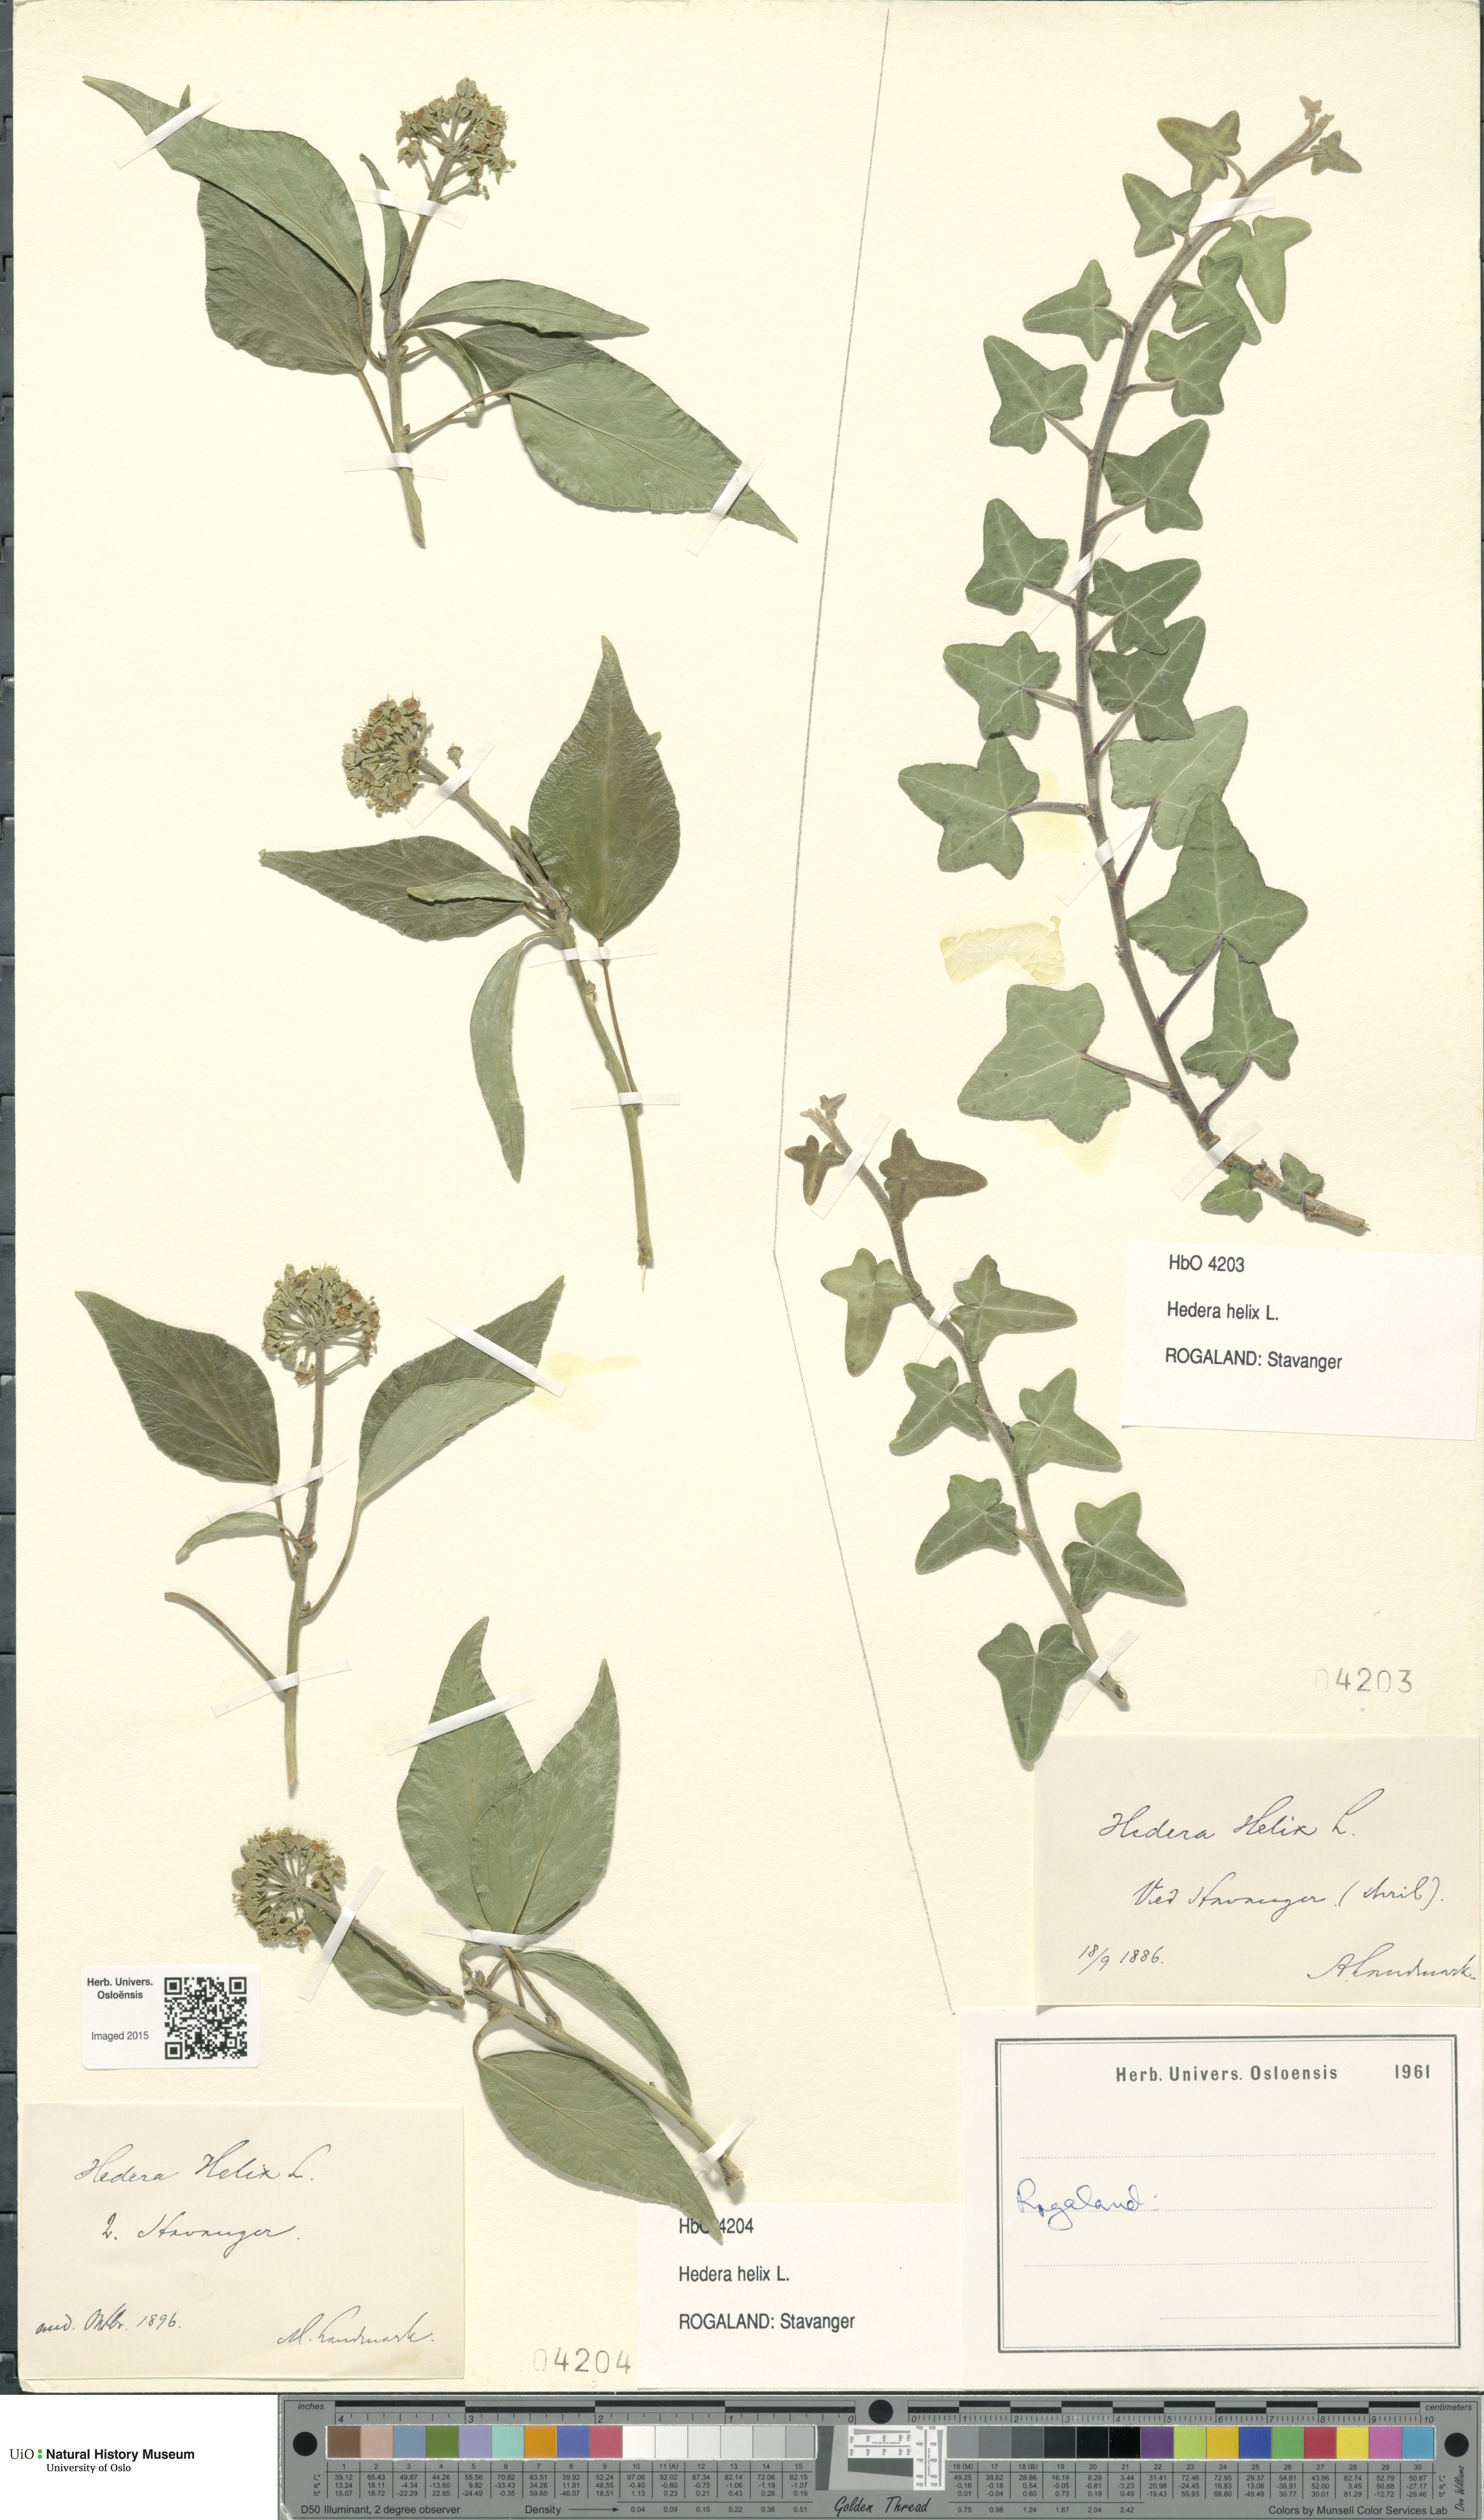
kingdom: Plantae
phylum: Tracheophyta
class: Magnoliopsida
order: Apiales
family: Araliaceae
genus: Hedera
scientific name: Hedera helix
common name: Ivy
